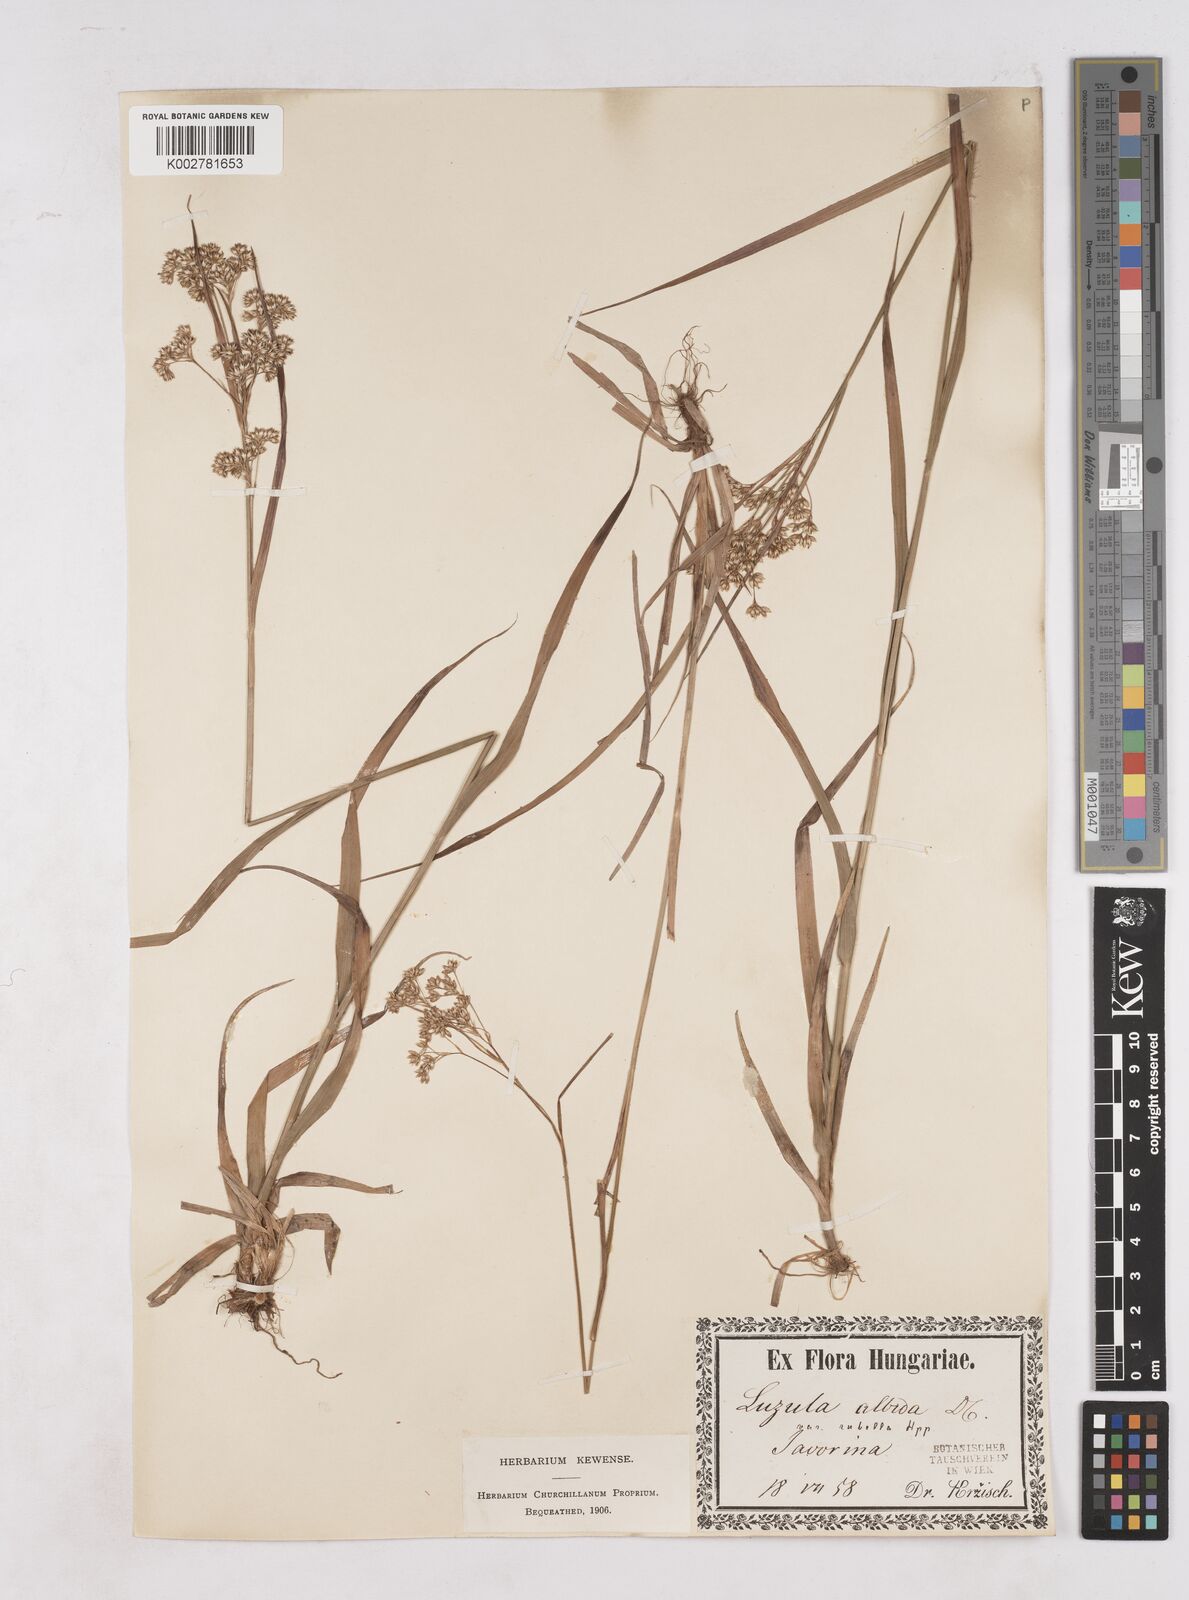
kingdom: Plantae
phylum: Tracheophyta
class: Liliopsida
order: Poales
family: Juncaceae
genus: Luzula
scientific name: Luzula luzuloides
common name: White wood-rush
